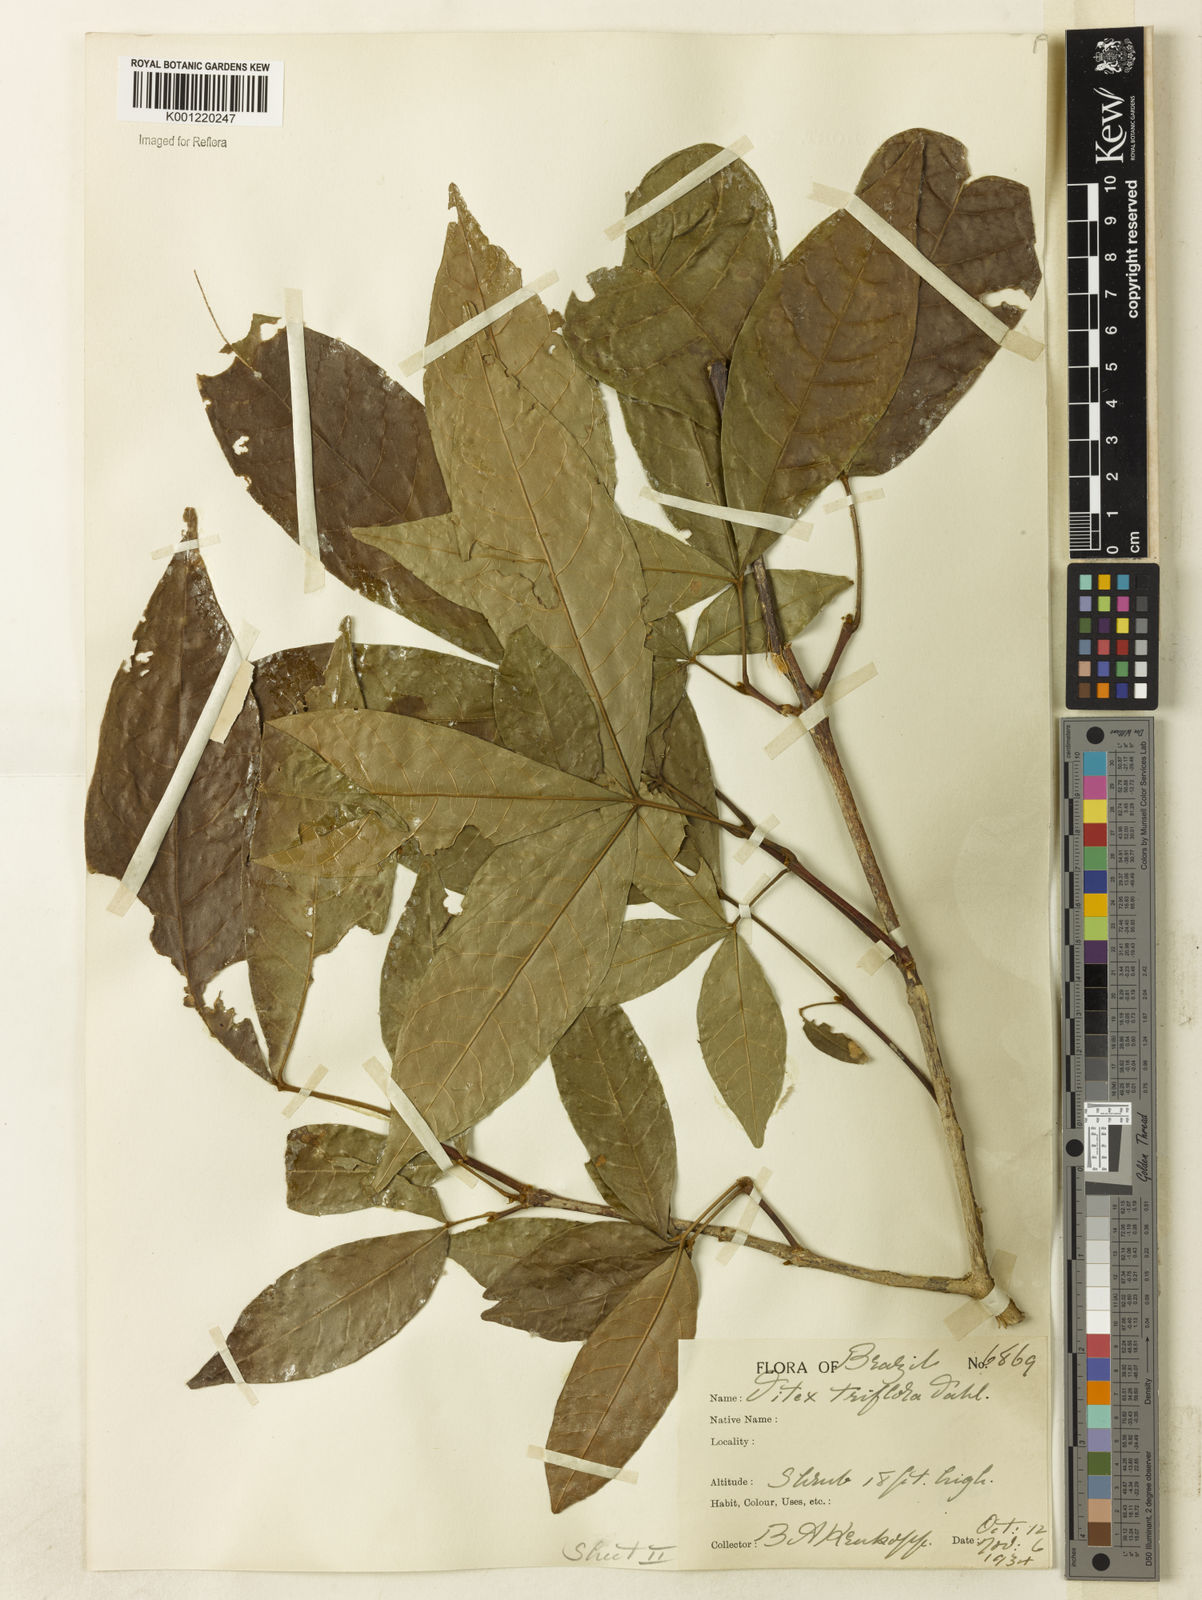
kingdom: Plantae
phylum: Tracheophyta
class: Magnoliopsida
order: Lamiales
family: Lamiaceae
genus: Vitex
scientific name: Vitex triflora
